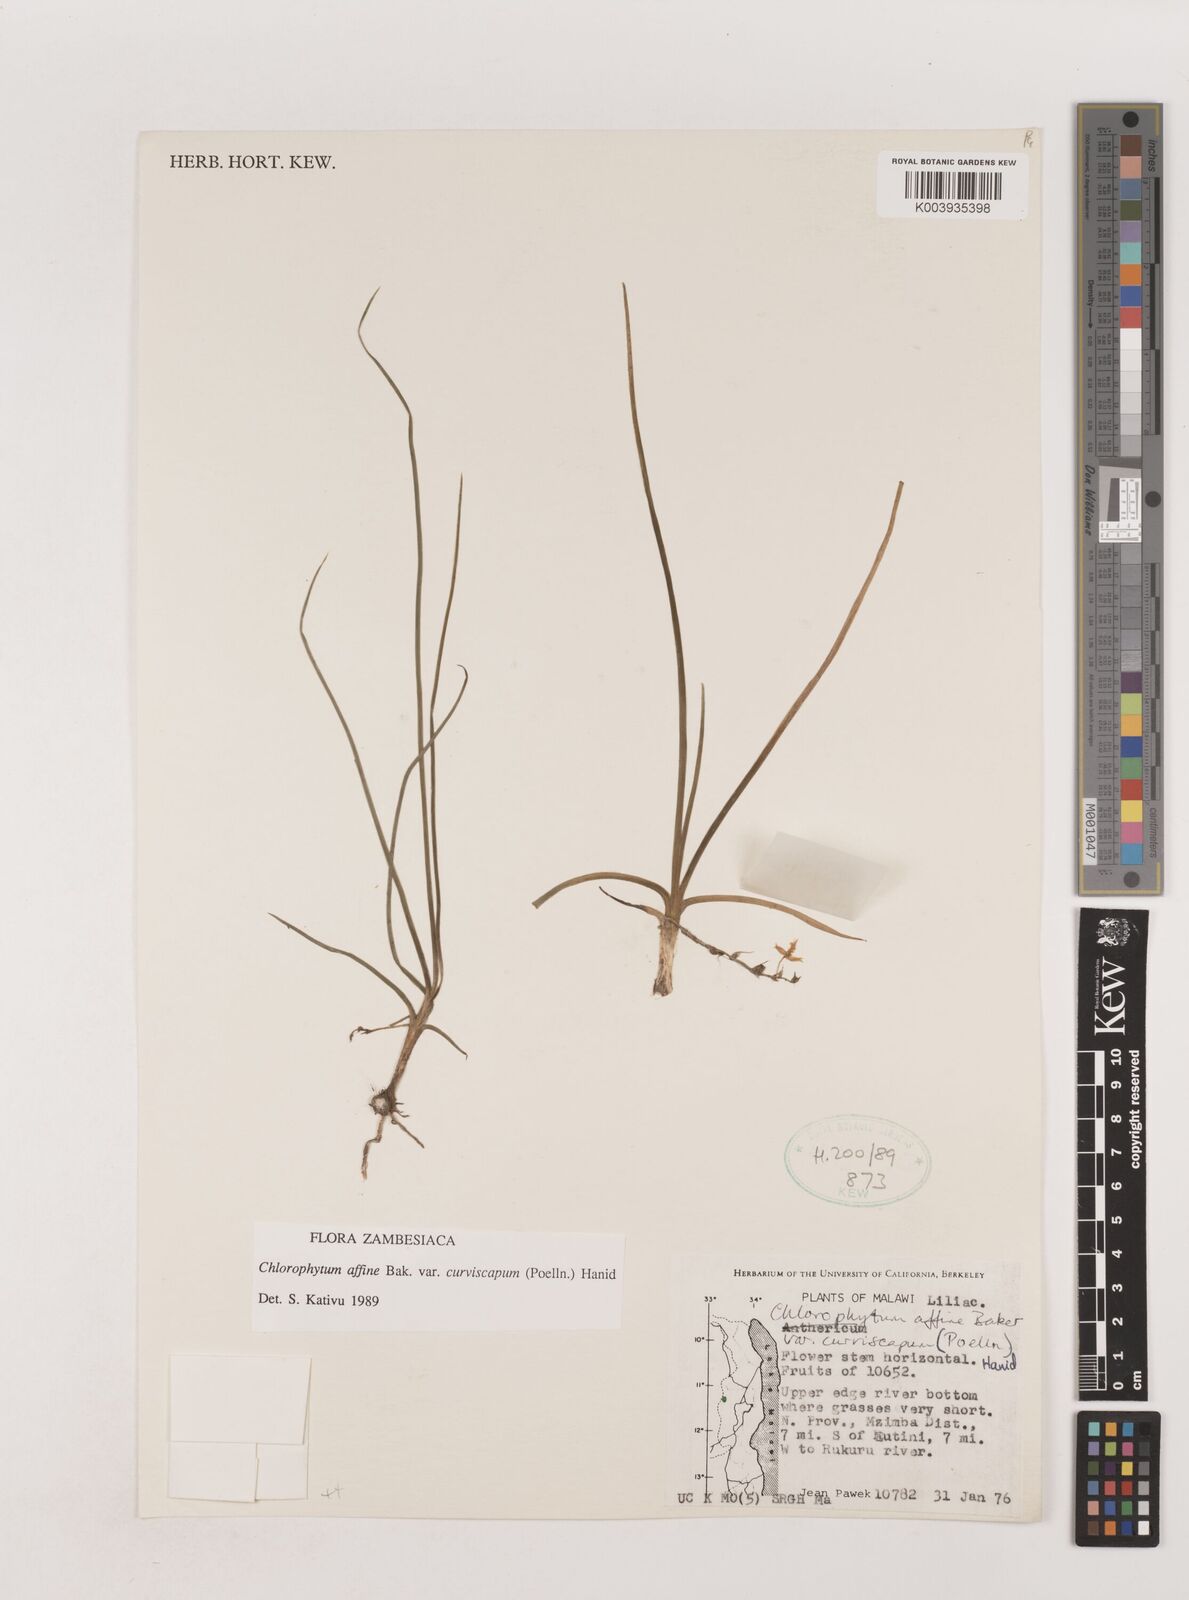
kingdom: Plantae
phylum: Tracheophyta
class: Liliopsida
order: Asparagales
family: Asparagaceae
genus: Chlorophytum
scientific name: Chlorophytum tordense
